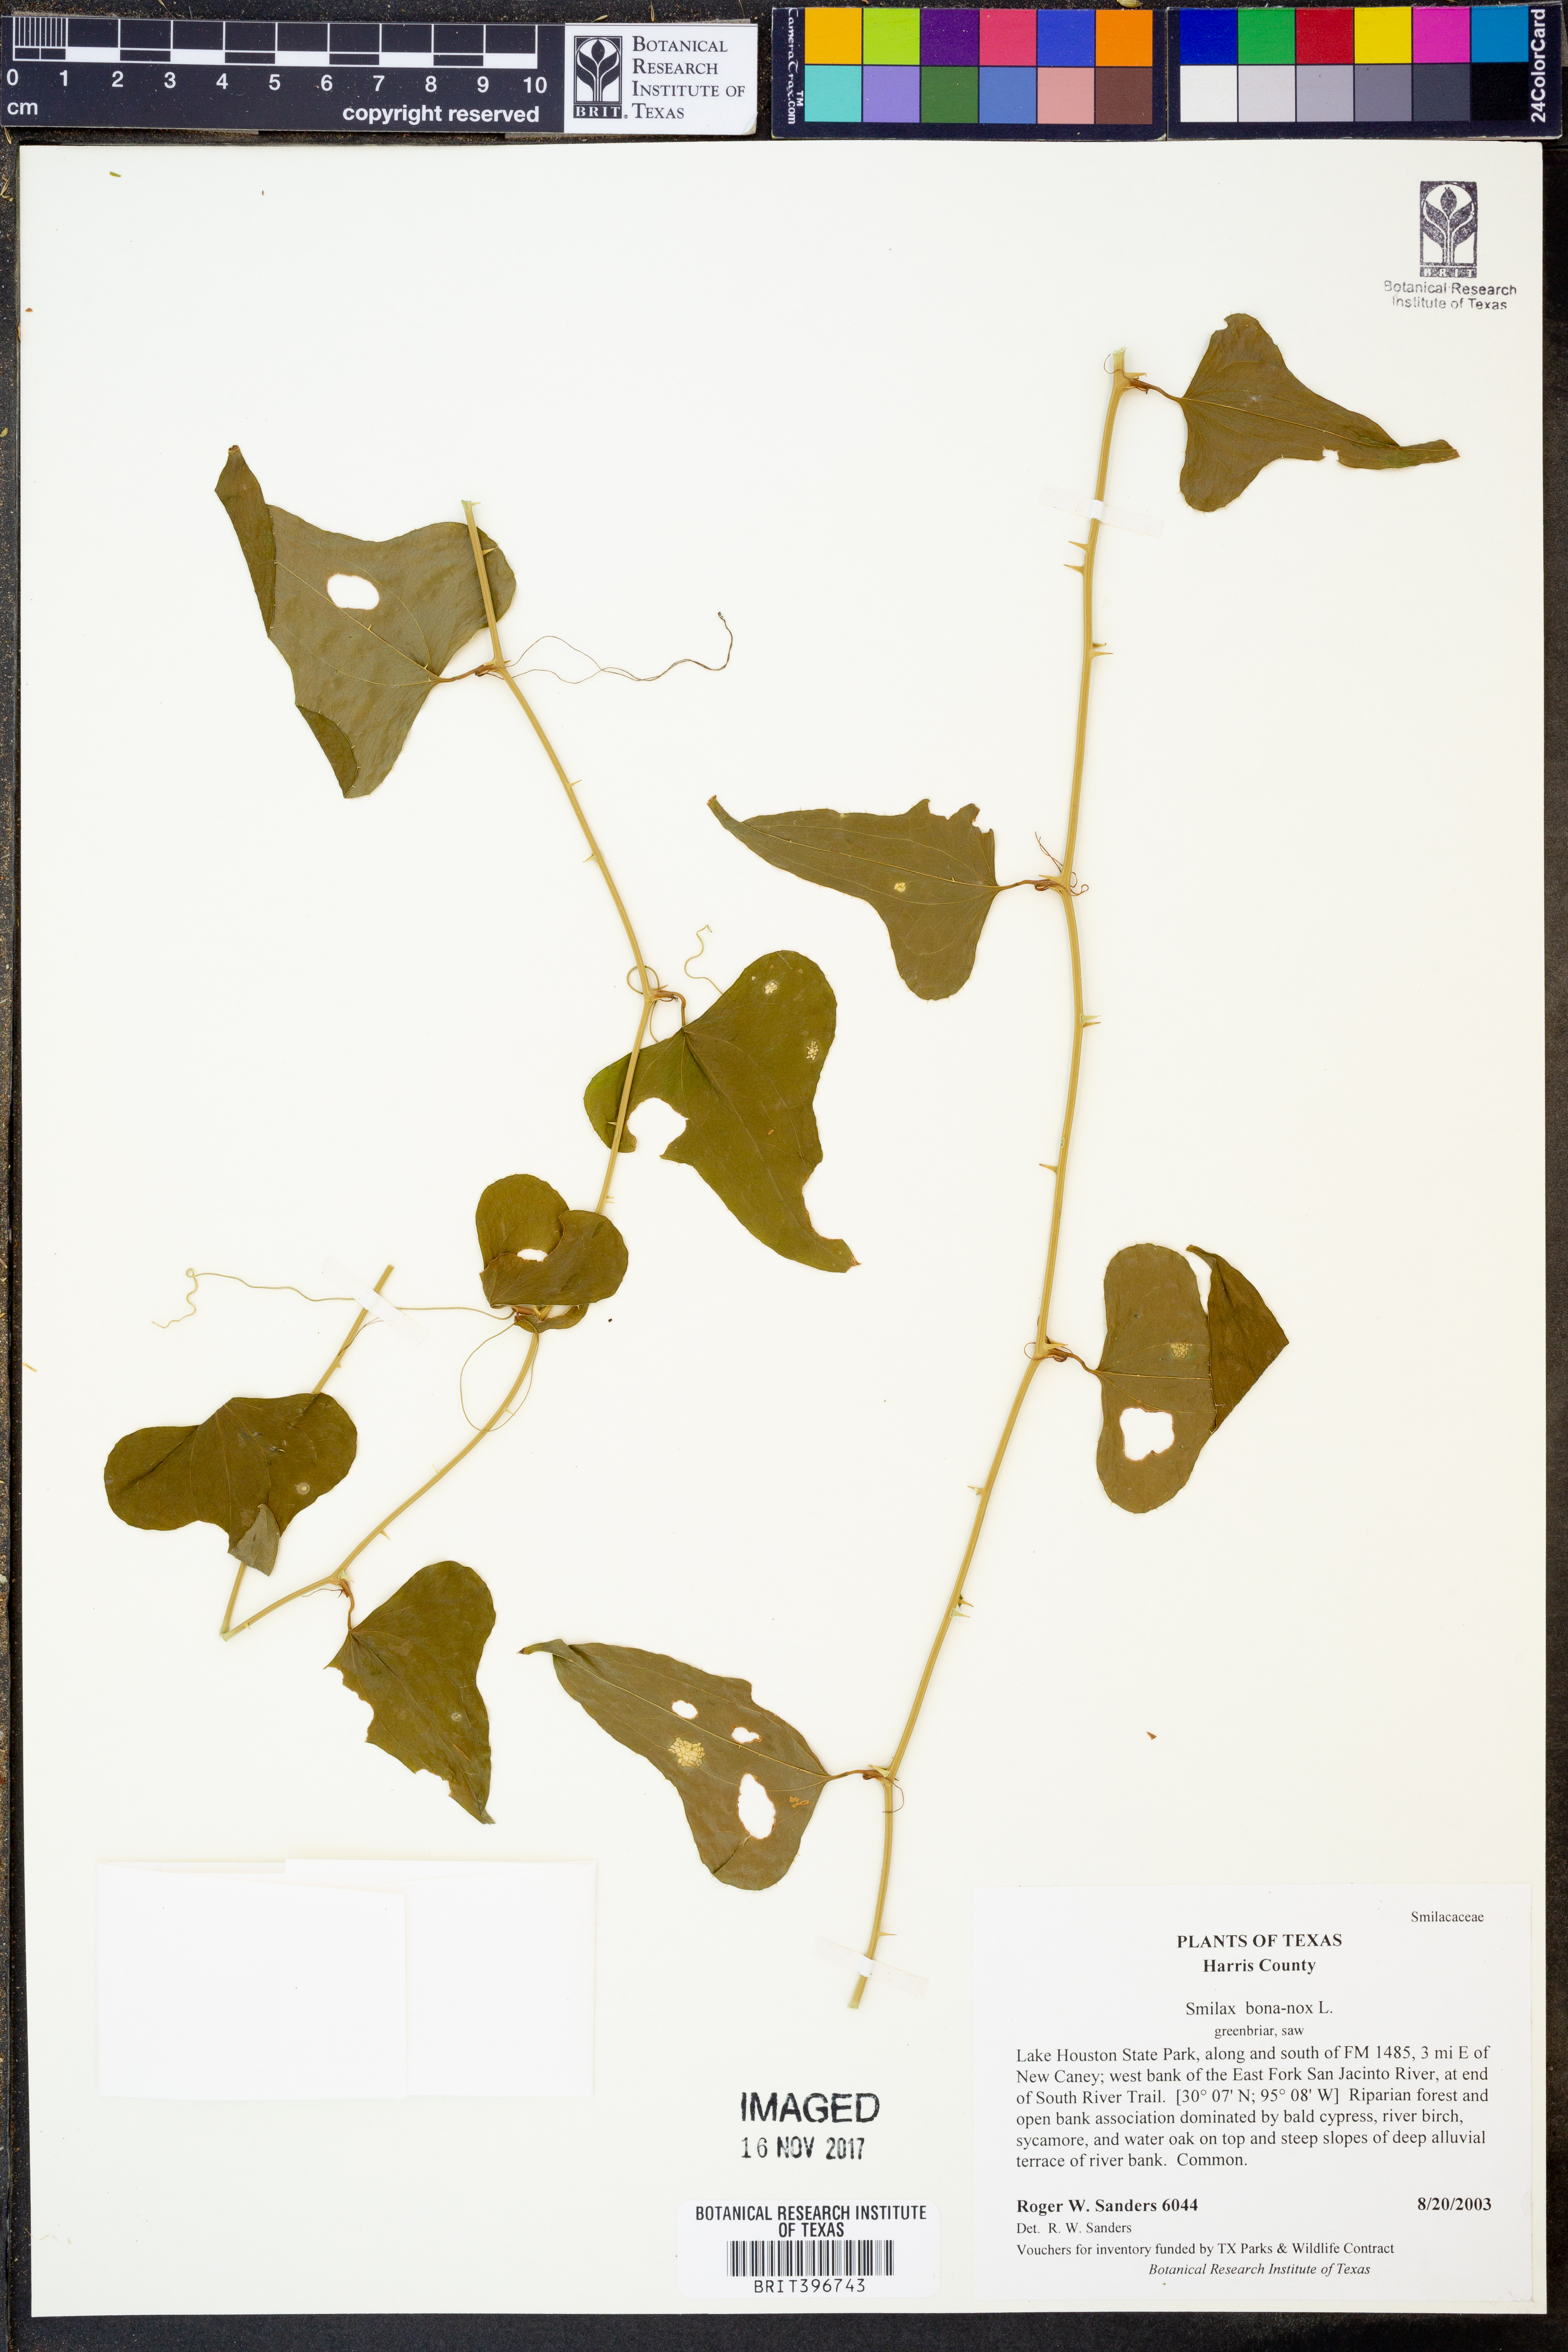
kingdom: Plantae
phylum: Tracheophyta
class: Liliopsida
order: Liliales
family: Smilacaceae
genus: Smilax
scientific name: Smilax bona-nox
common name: Catbrier
